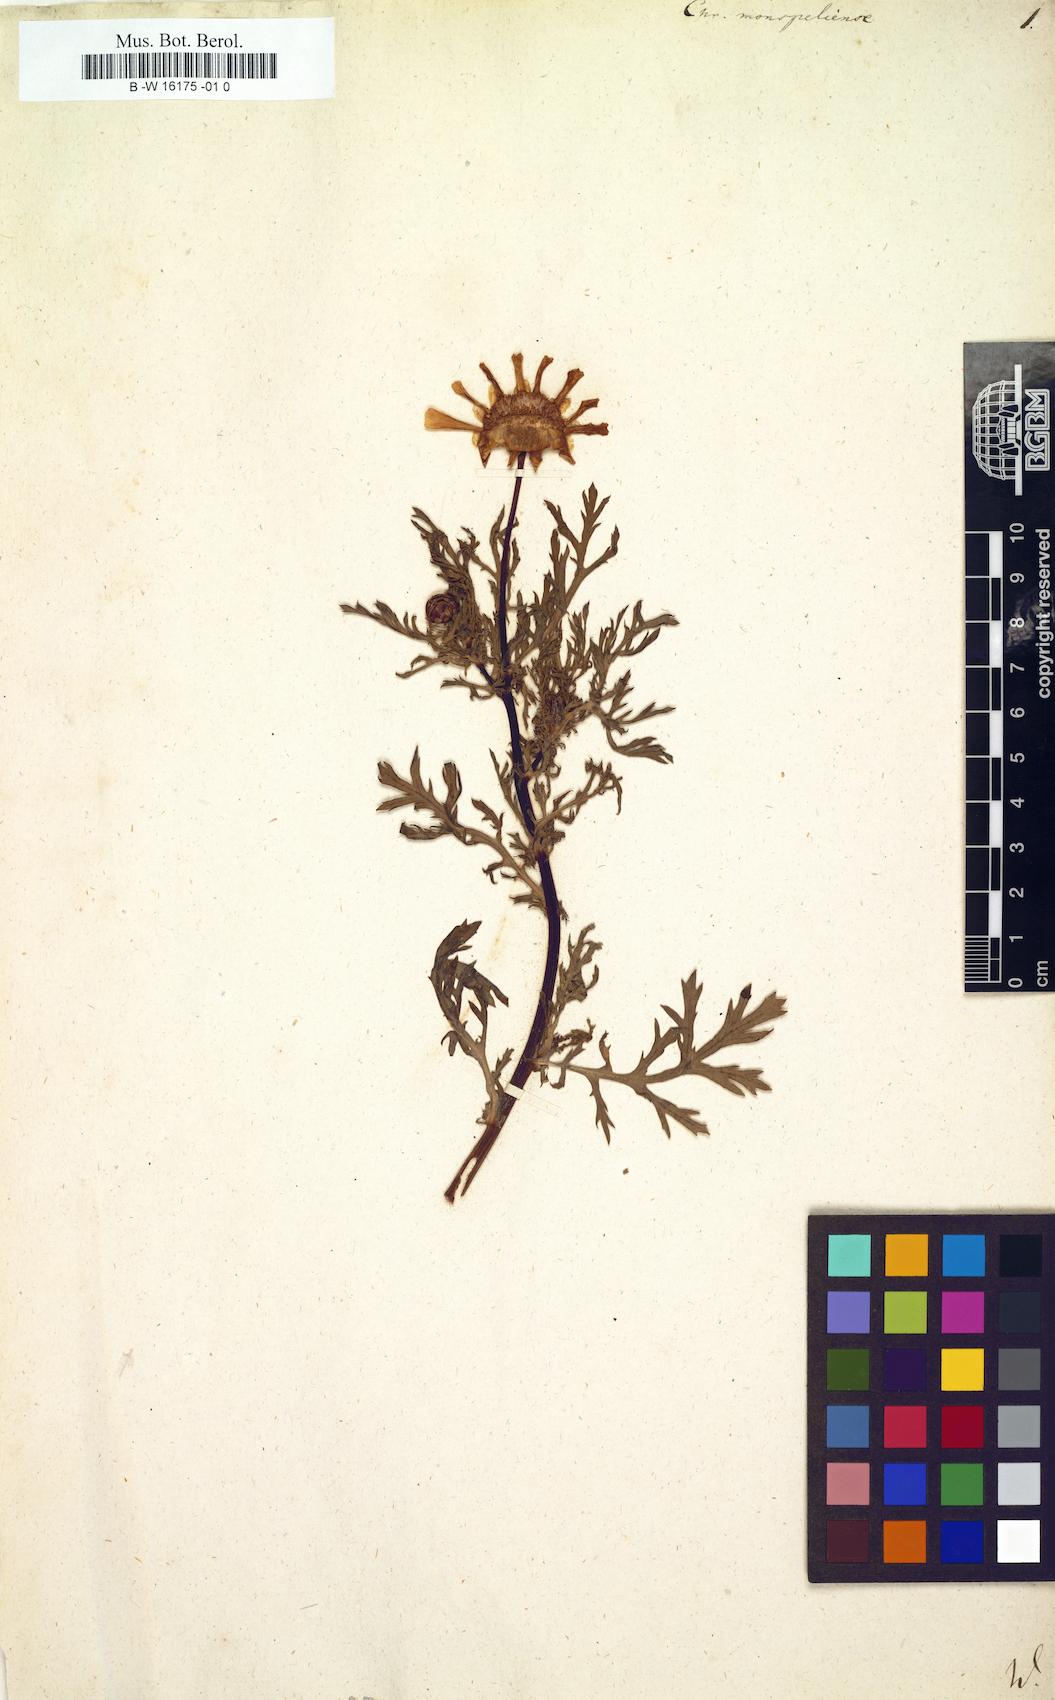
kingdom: Plantae
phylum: Tracheophyta
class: Magnoliopsida
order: Asterales
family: Asteraceae
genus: Chrysanthemum
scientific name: Chrysanthemum monspeliense
